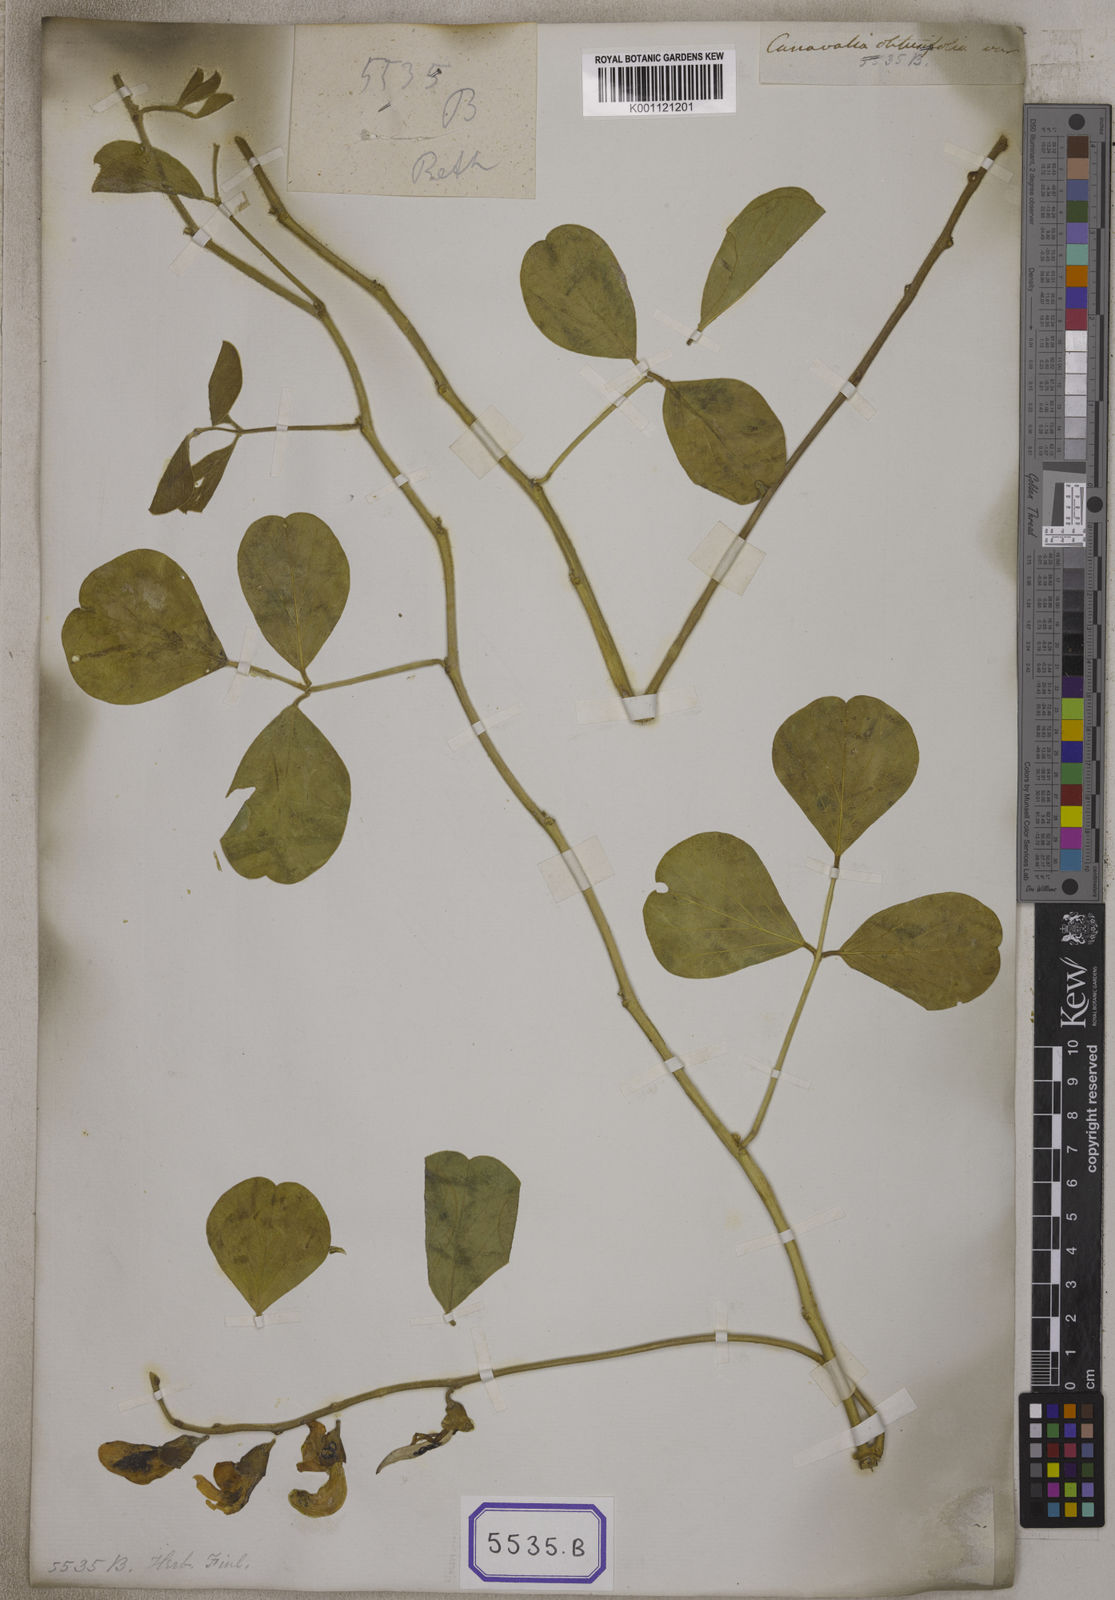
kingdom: Plantae
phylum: Tracheophyta
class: Magnoliopsida
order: Fabales
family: Fabaceae
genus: Canavalia
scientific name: Canavalia
